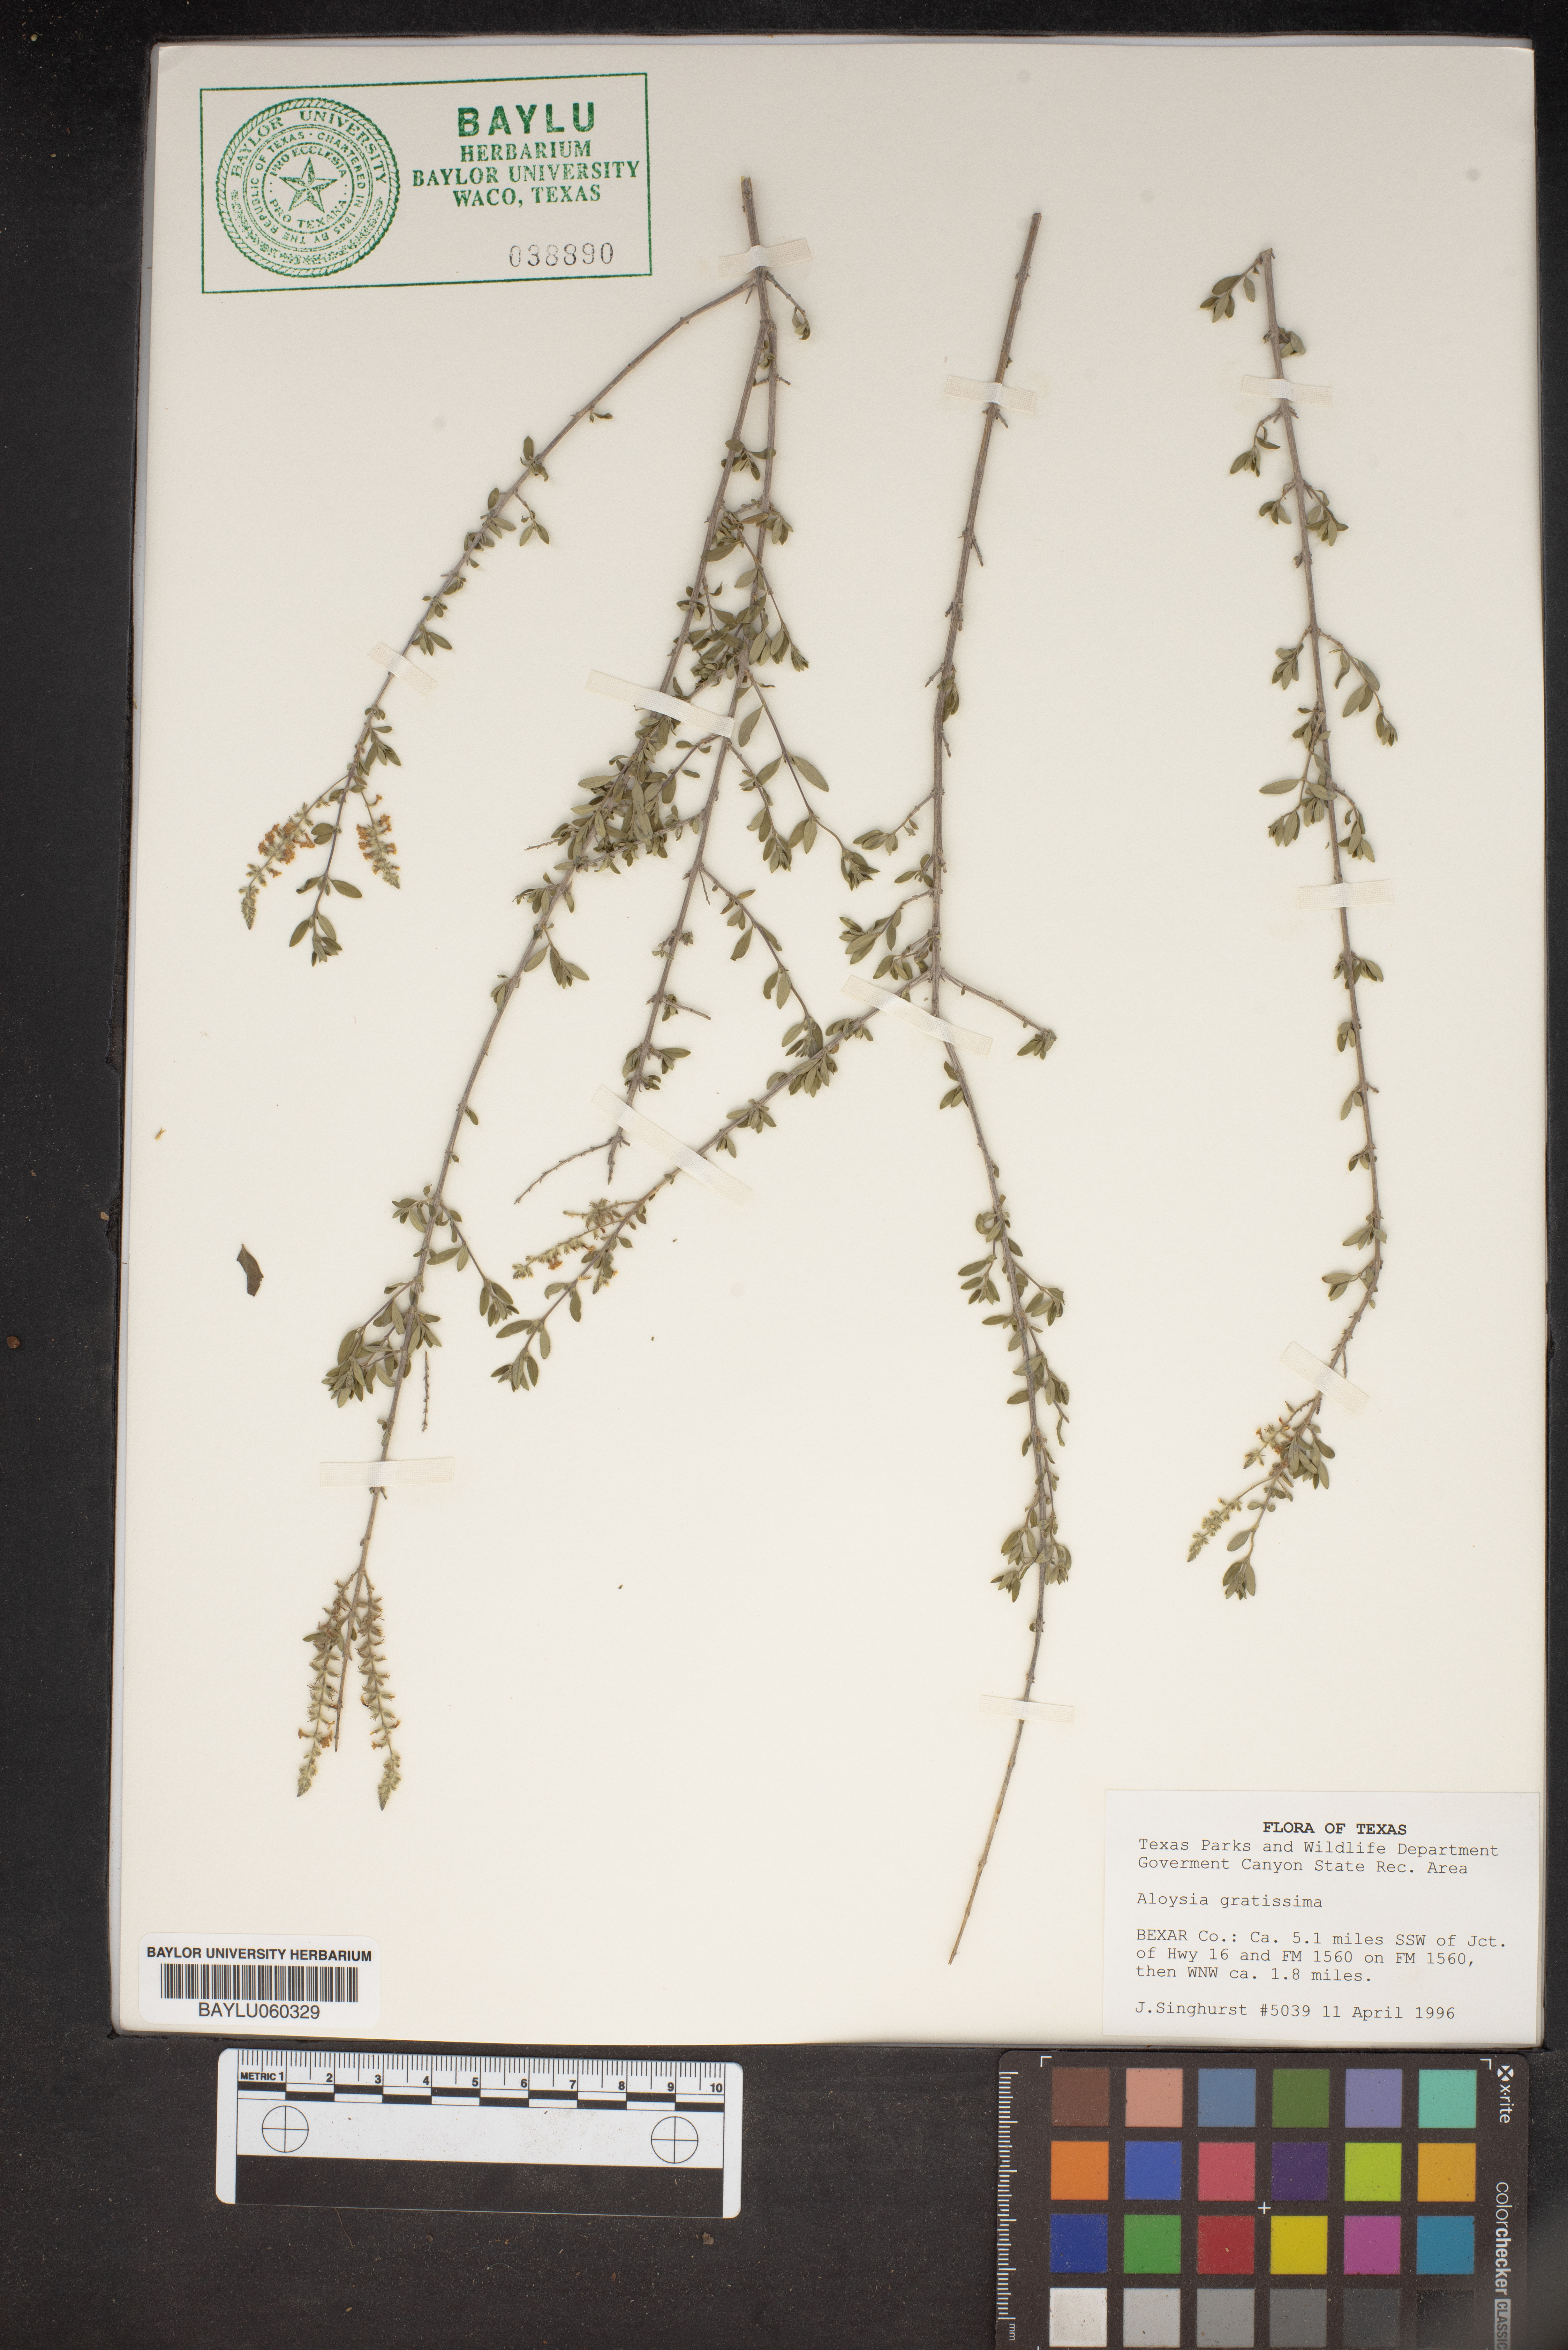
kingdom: Plantae
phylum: Tracheophyta
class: Magnoliopsida
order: Lamiales
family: Verbenaceae
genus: Aloysia
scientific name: Aloysia gratissima
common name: Common bee-brush
